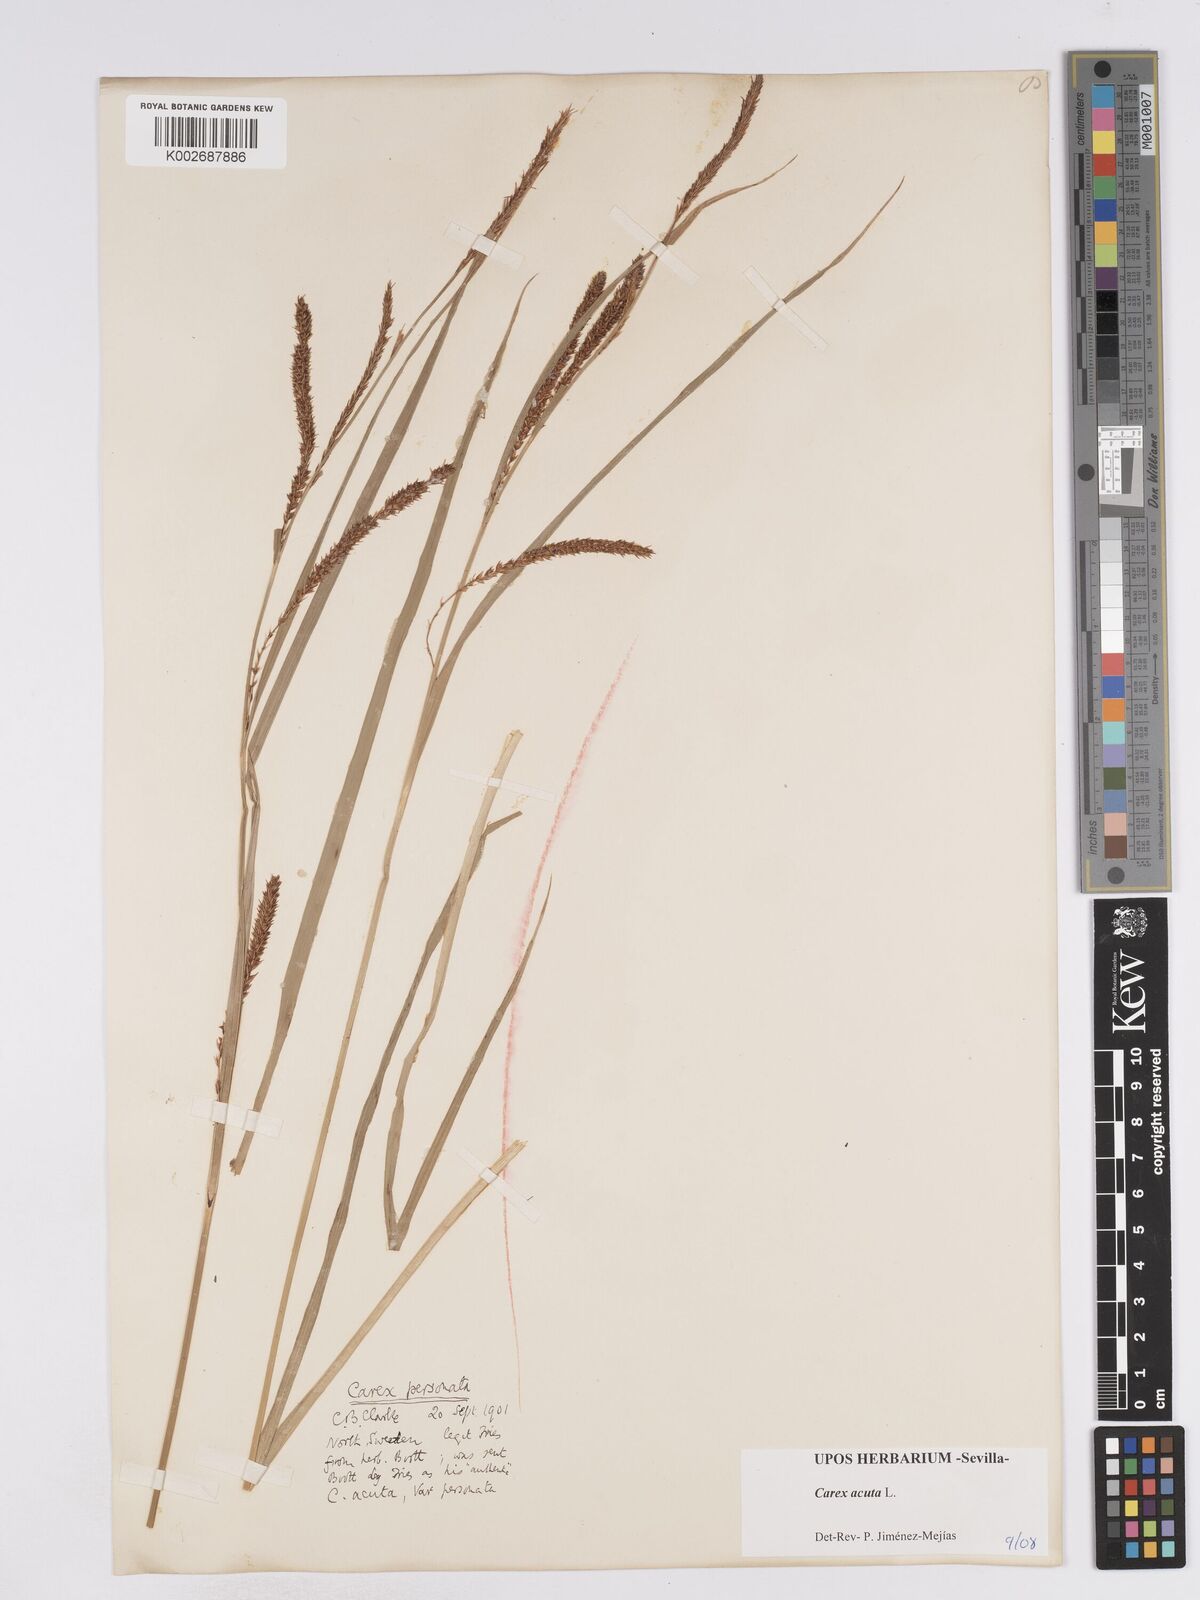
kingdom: Plantae
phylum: Tracheophyta
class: Liliopsida
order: Poales
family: Cyperaceae
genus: Carex
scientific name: Carex acuta
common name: Slender tufted-sedge
